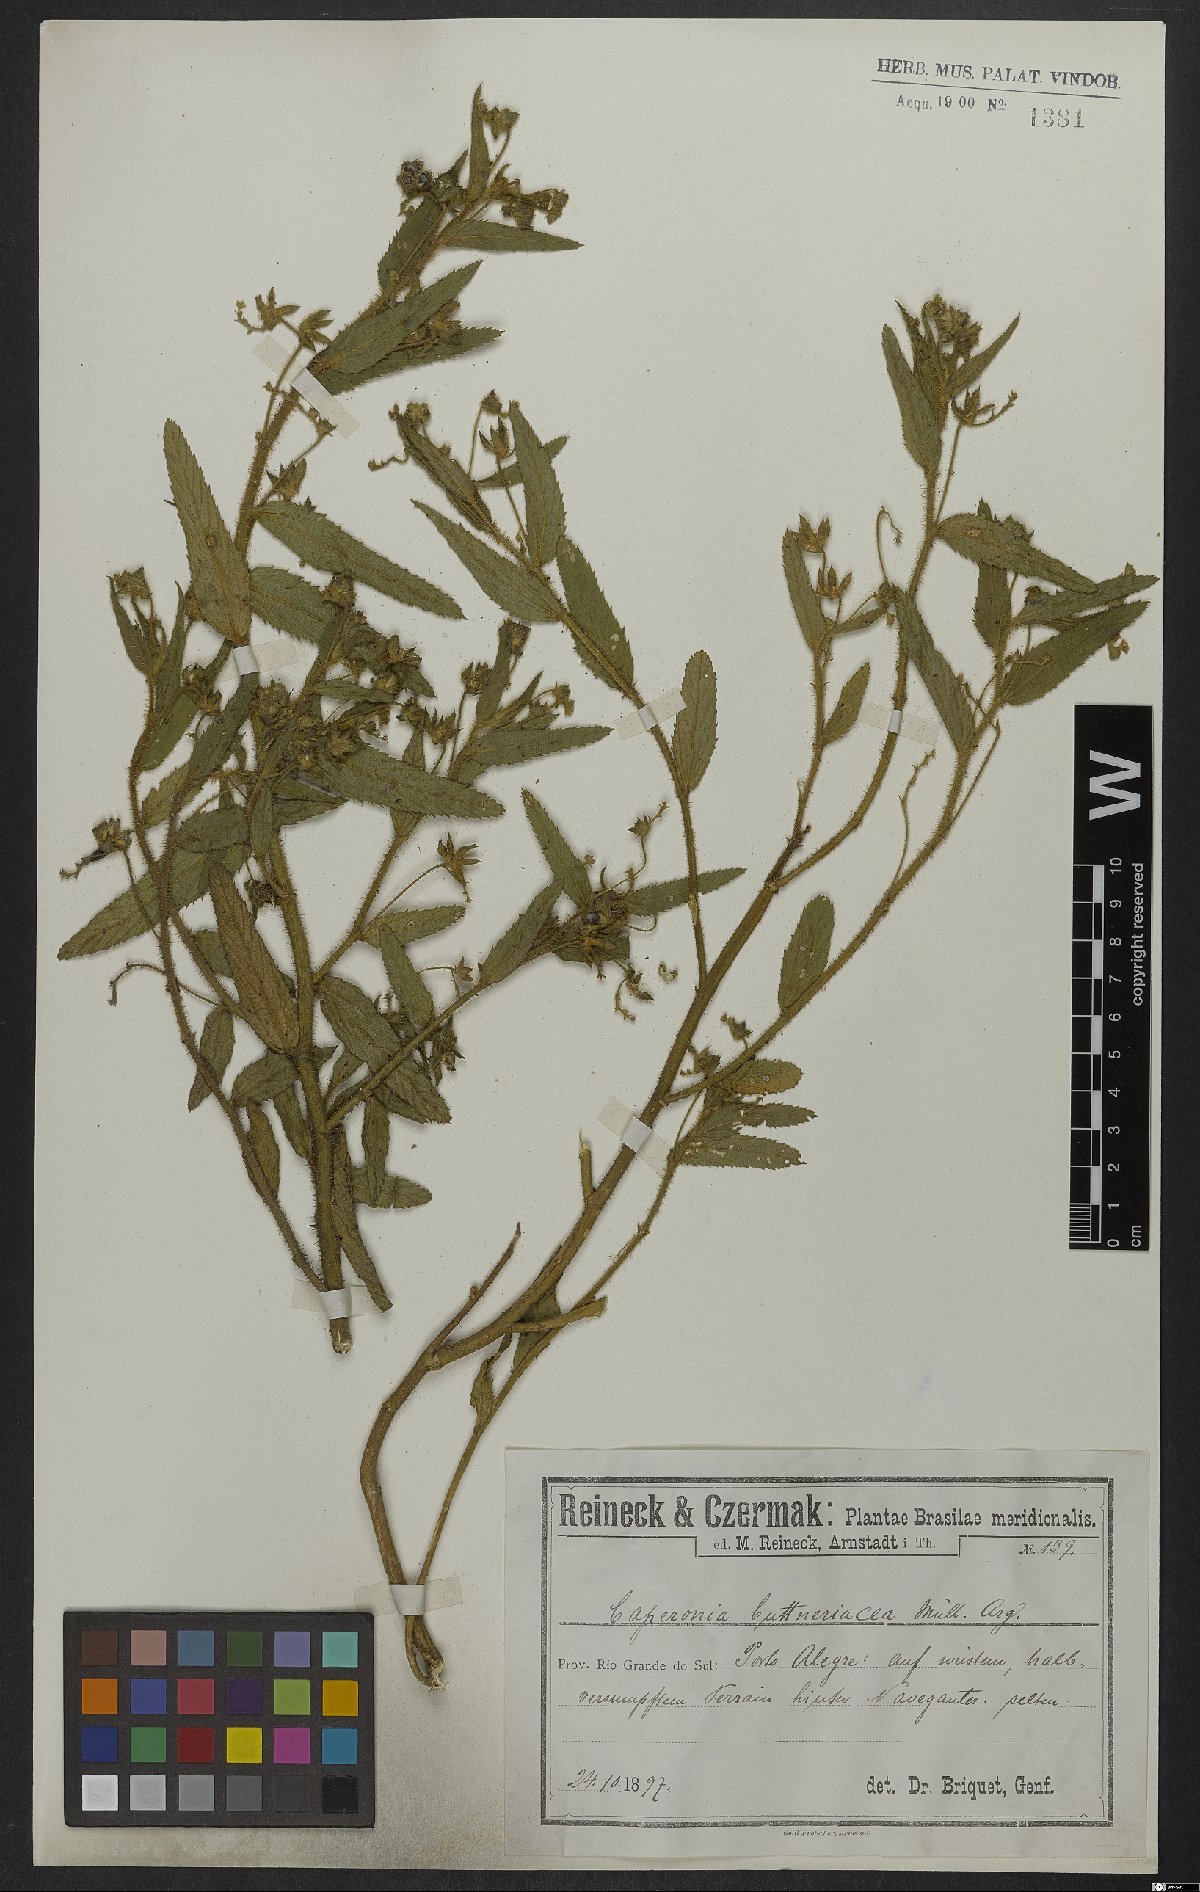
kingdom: Plantae
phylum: Tracheophyta
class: Magnoliopsida
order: Malpighiales
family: Euphorbiaceae
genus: Caperonia
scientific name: Caperonia linearifolia
